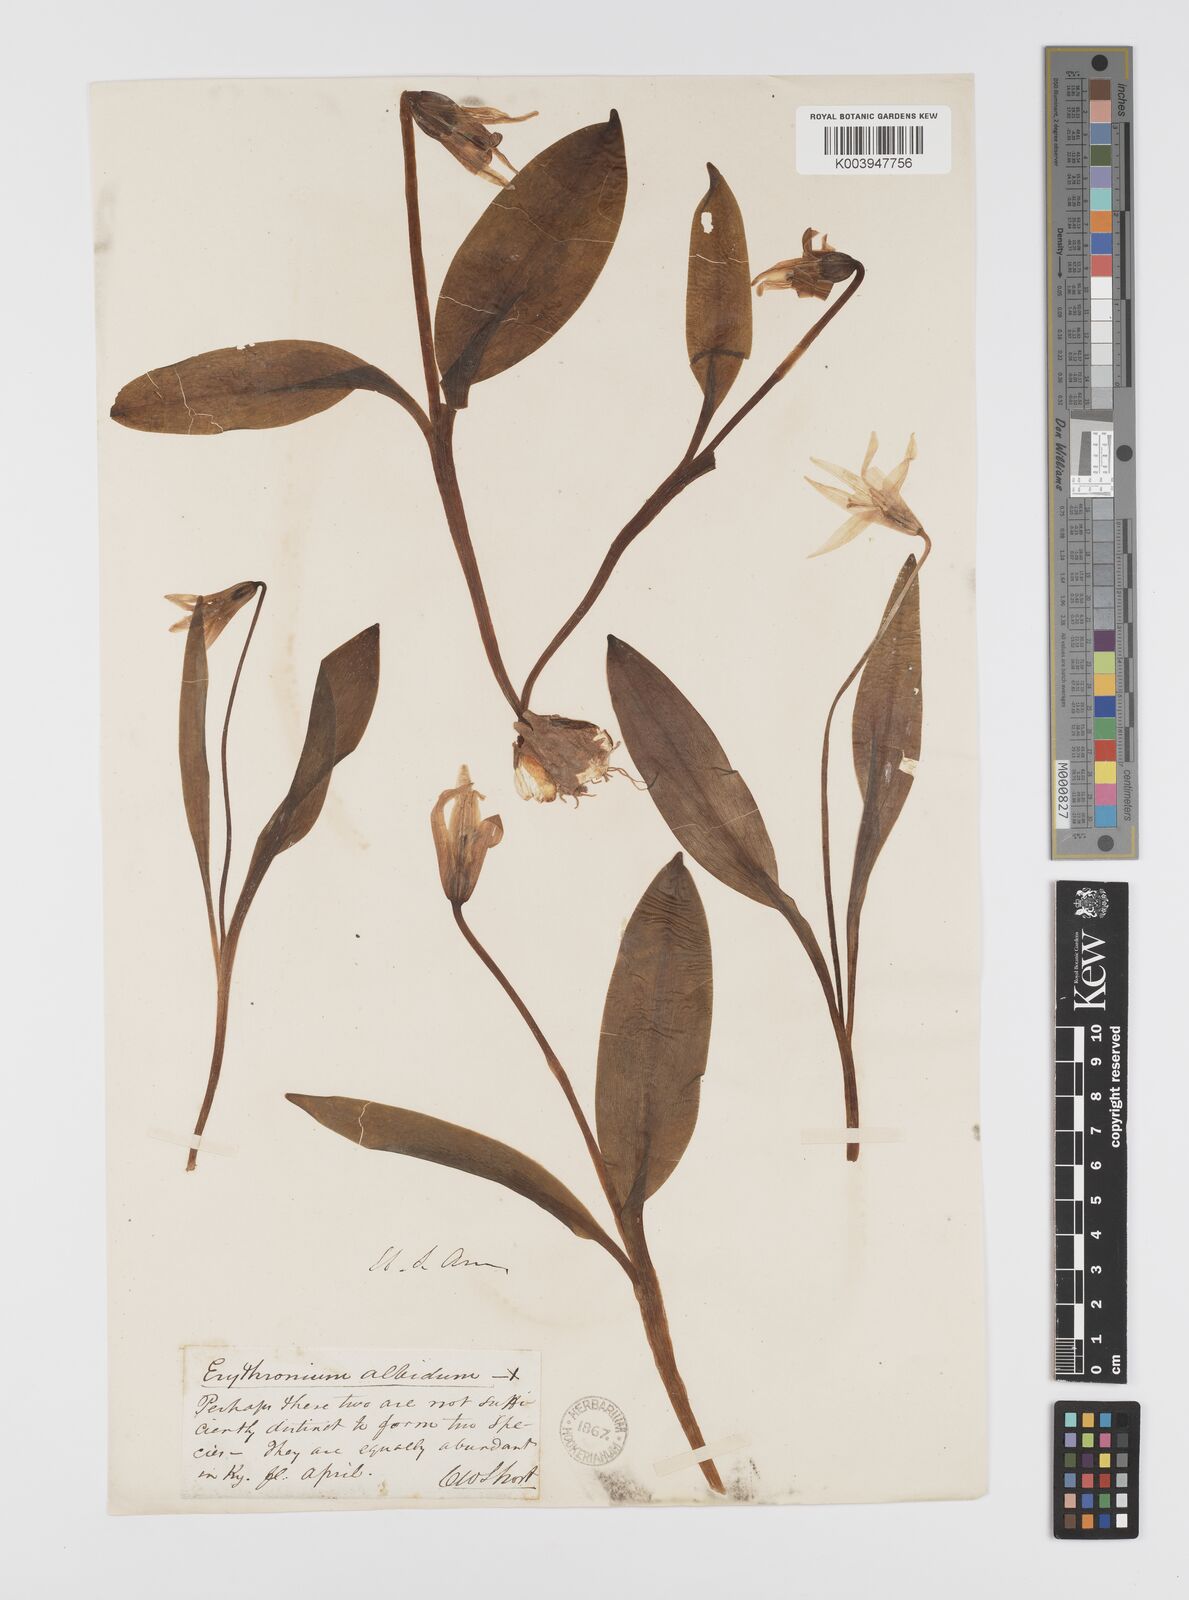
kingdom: Plantae
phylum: Tracheophyta
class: Liliopsida
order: Liliales
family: Liliaceae
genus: Erythronium
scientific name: Erythronium albidum
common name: White trout-lily
